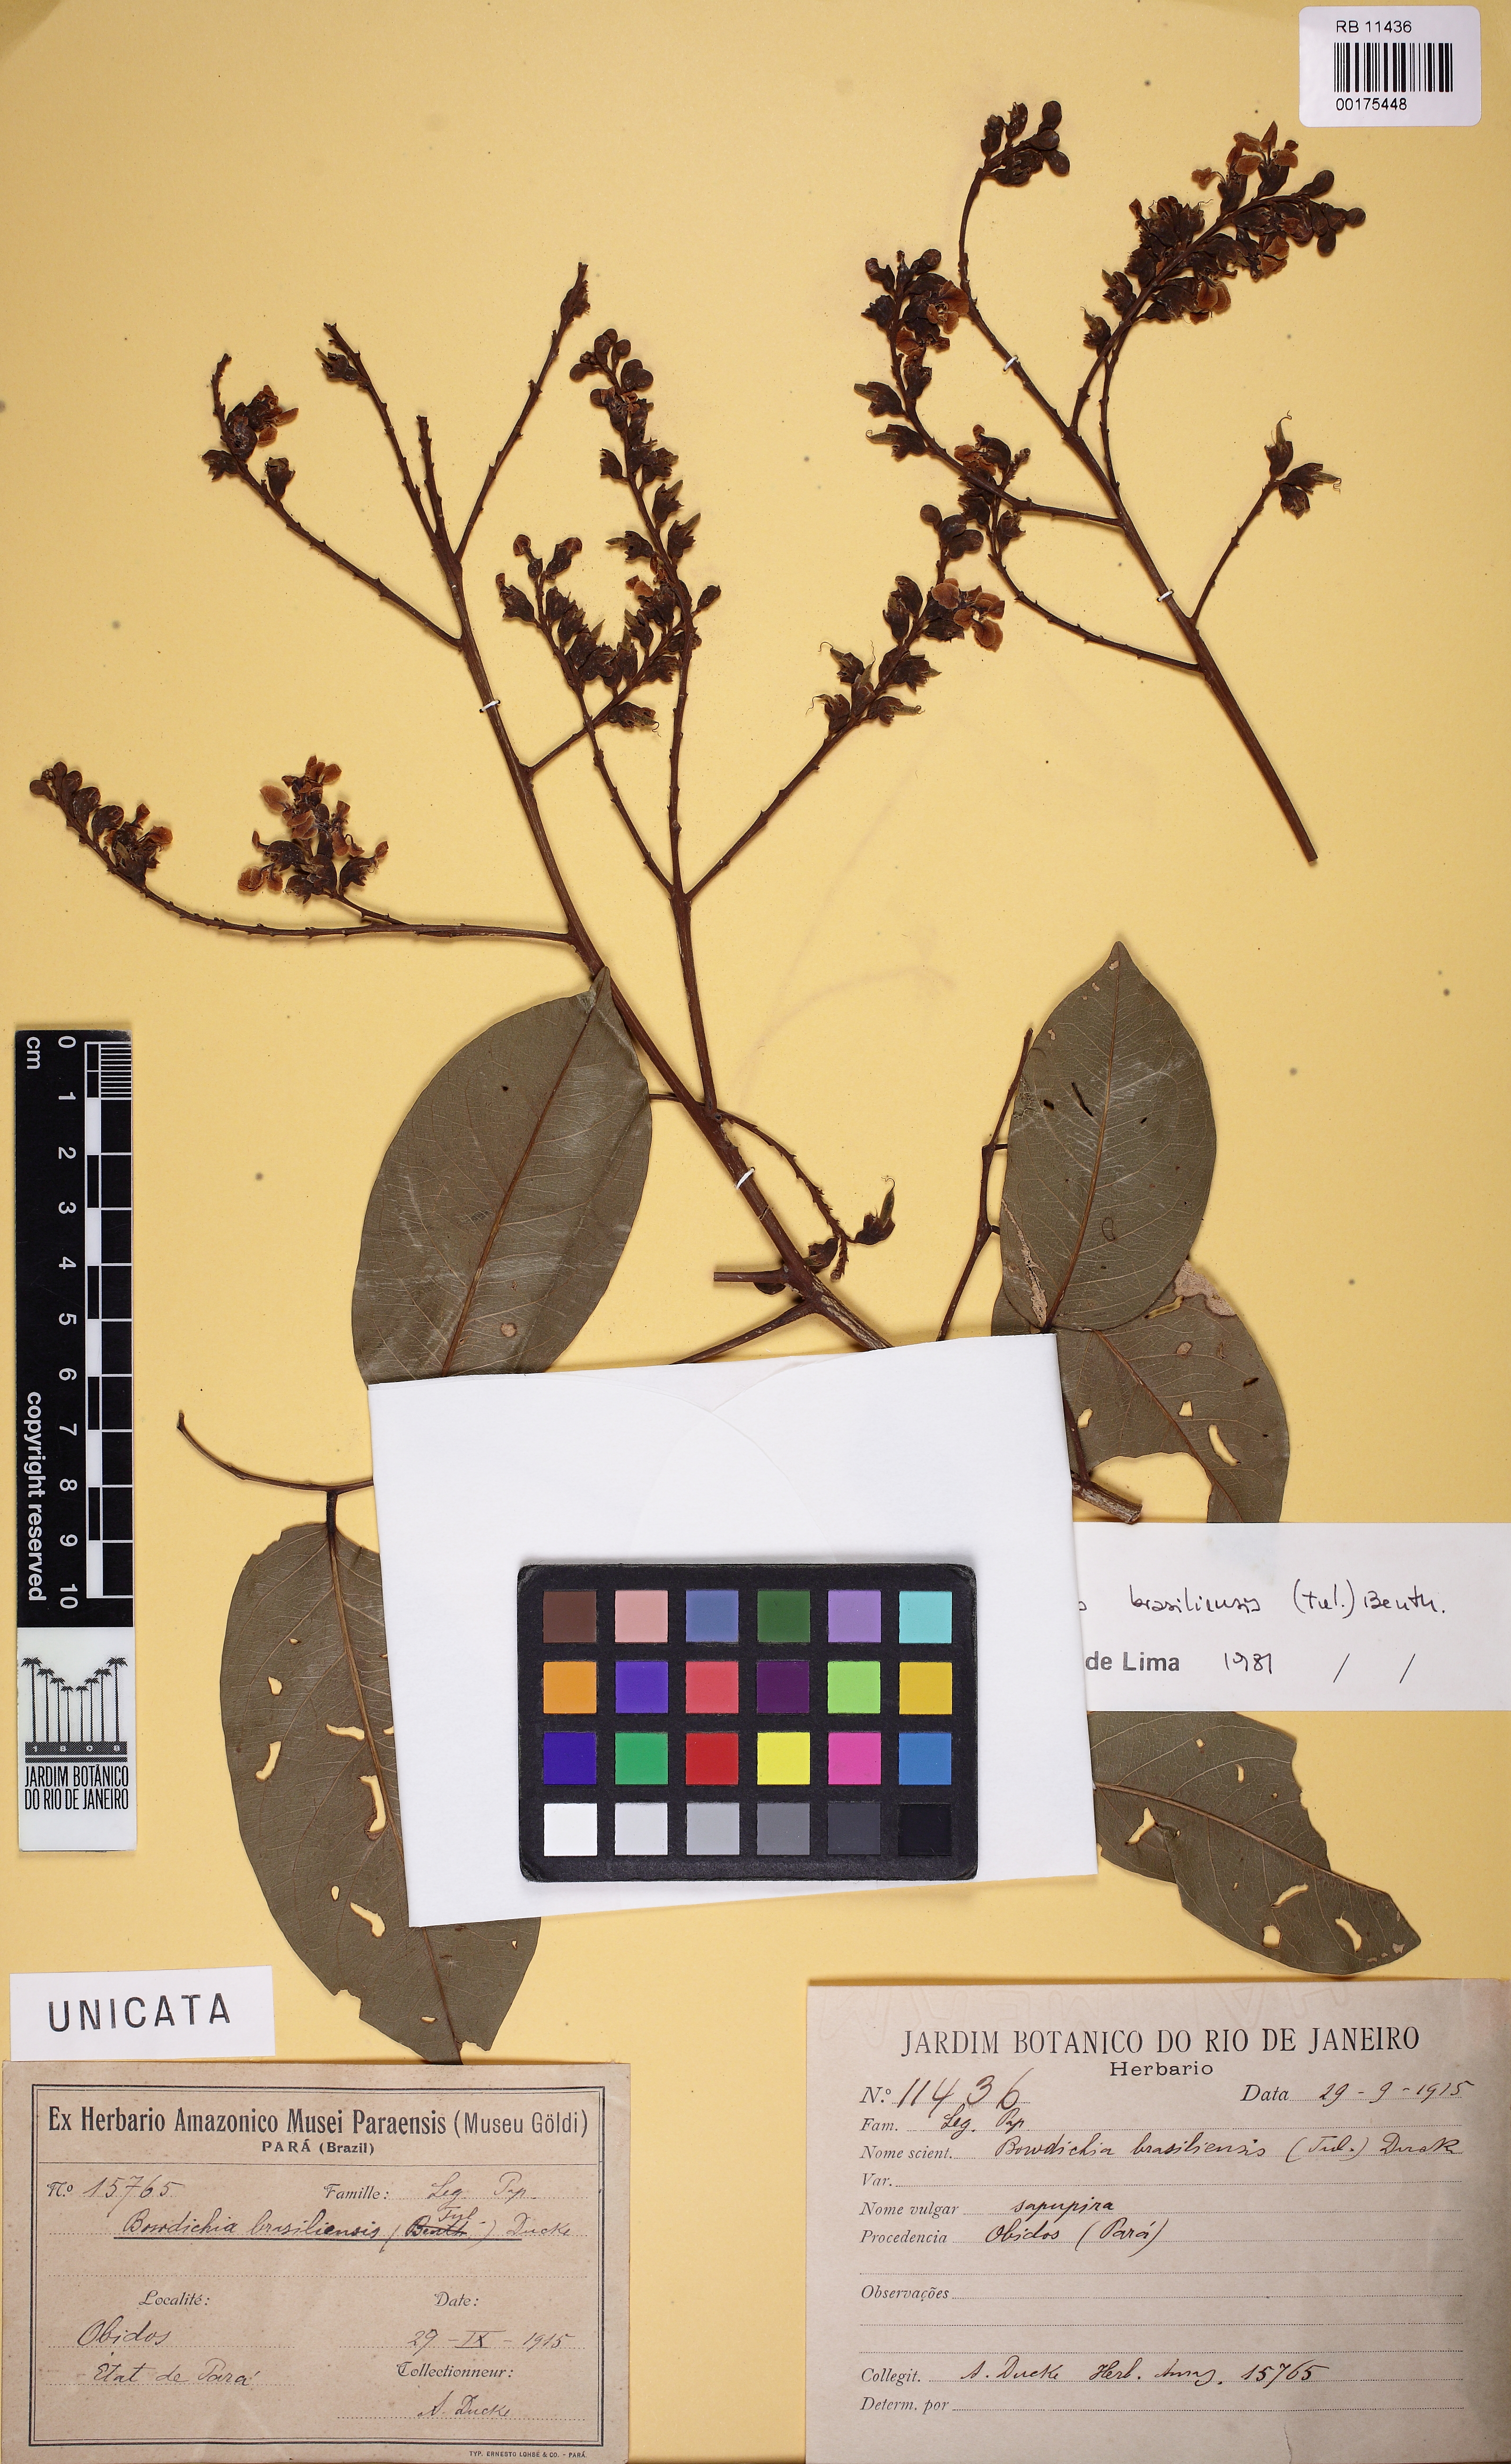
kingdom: Plantae
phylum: Tracheophyta
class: Magnoliopsida
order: Fabales
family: Fabaceae
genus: Diplotropis
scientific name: Diplotropis brasiliensis
